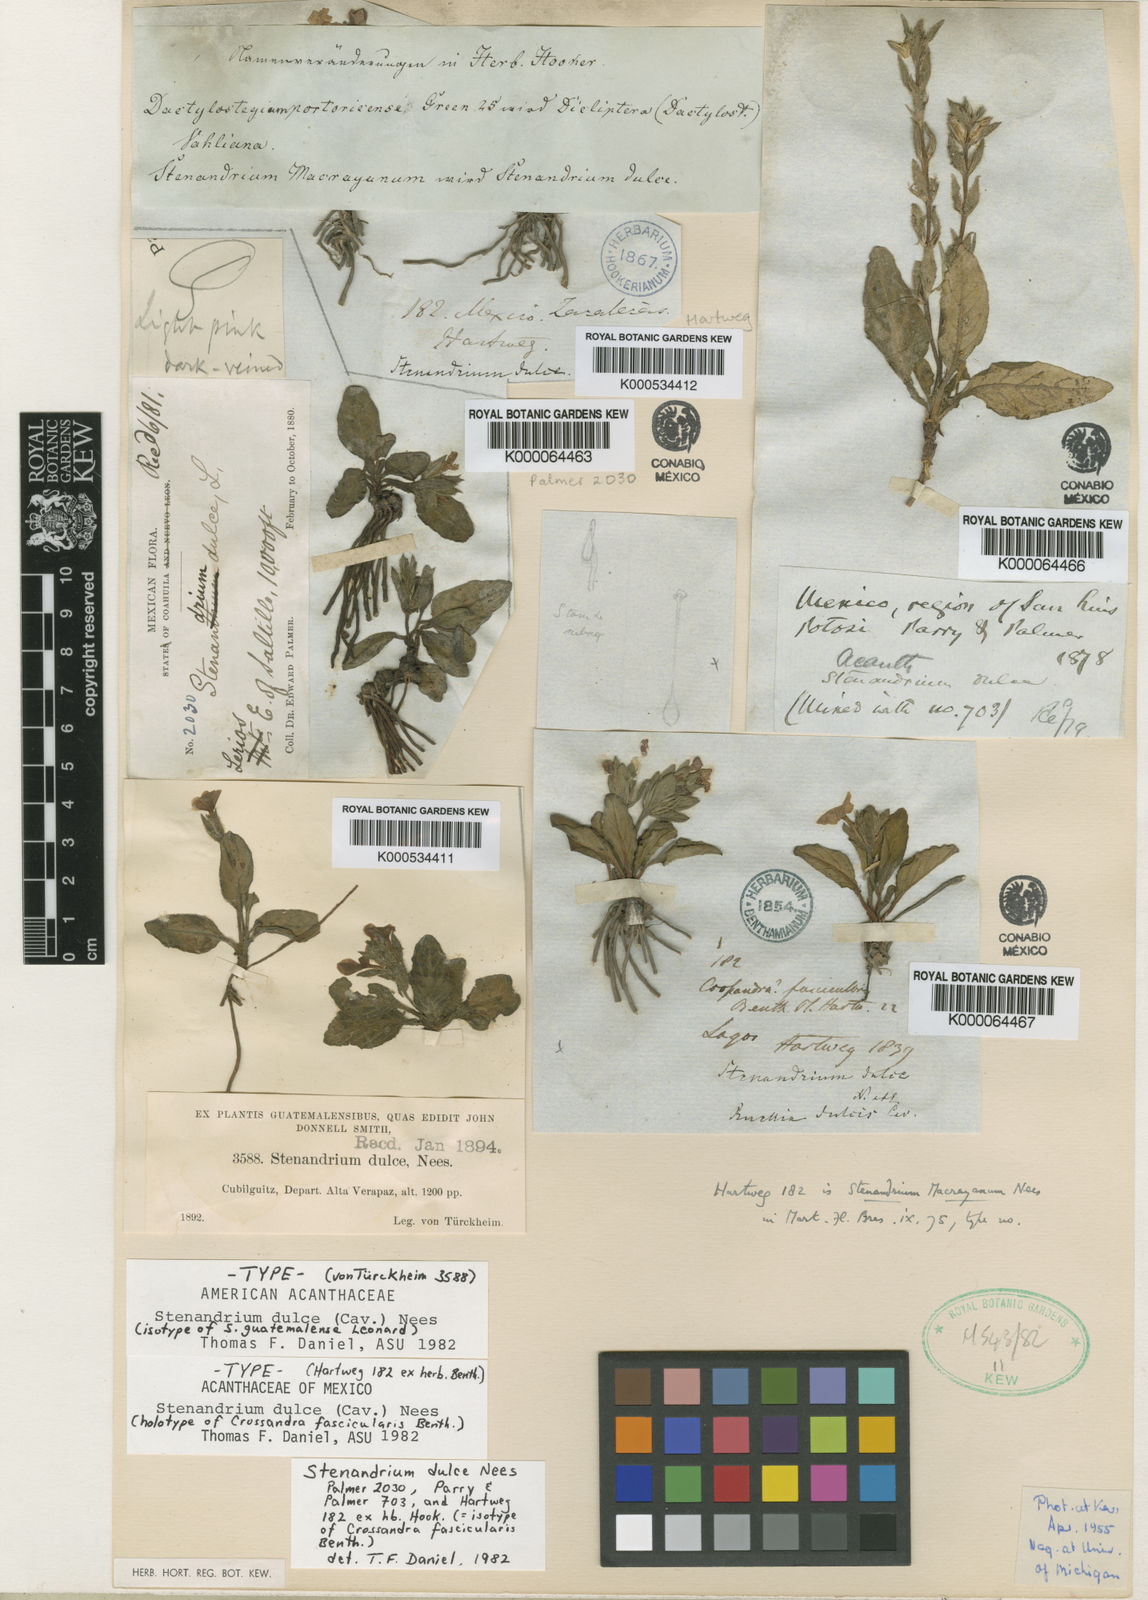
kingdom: Plantae
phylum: Tracheophyta
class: Magnoliopsida
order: Lamiales
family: Acanthaceae
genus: Stenandrium
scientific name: Stenandrium dulce
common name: Pinklet
